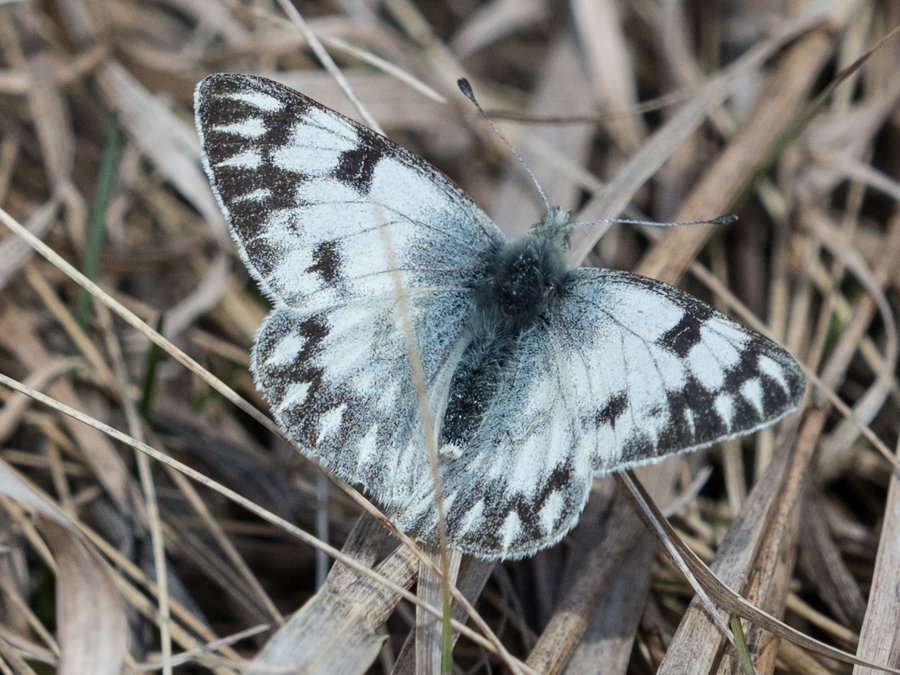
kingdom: Animalia
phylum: Arthropoda
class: Insecta
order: Lepidoptera
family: Pieridae
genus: Pontia
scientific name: Pontia occidentalis
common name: Western White
